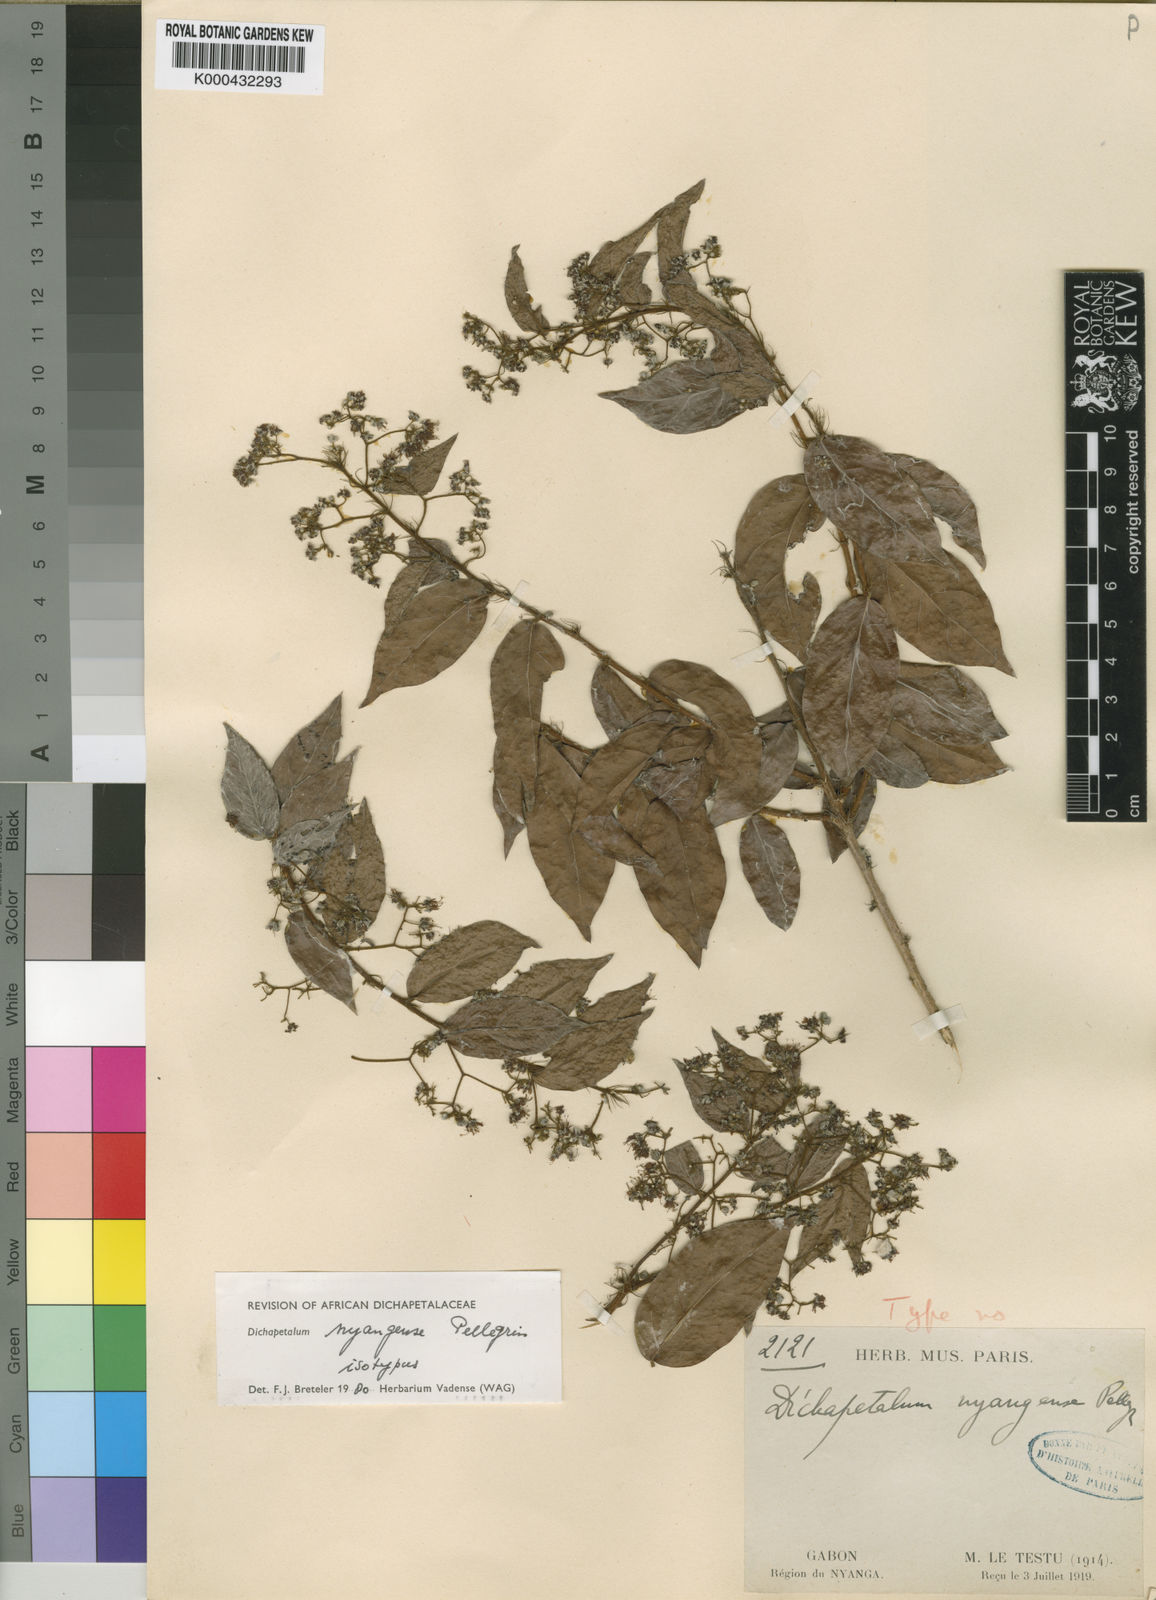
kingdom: Plantae
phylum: Tracheophyta
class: Magnoliopsida
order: Malpighiales
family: Dichapetalaceae
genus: Dichapetalum
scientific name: Dichapetalum nyangense
